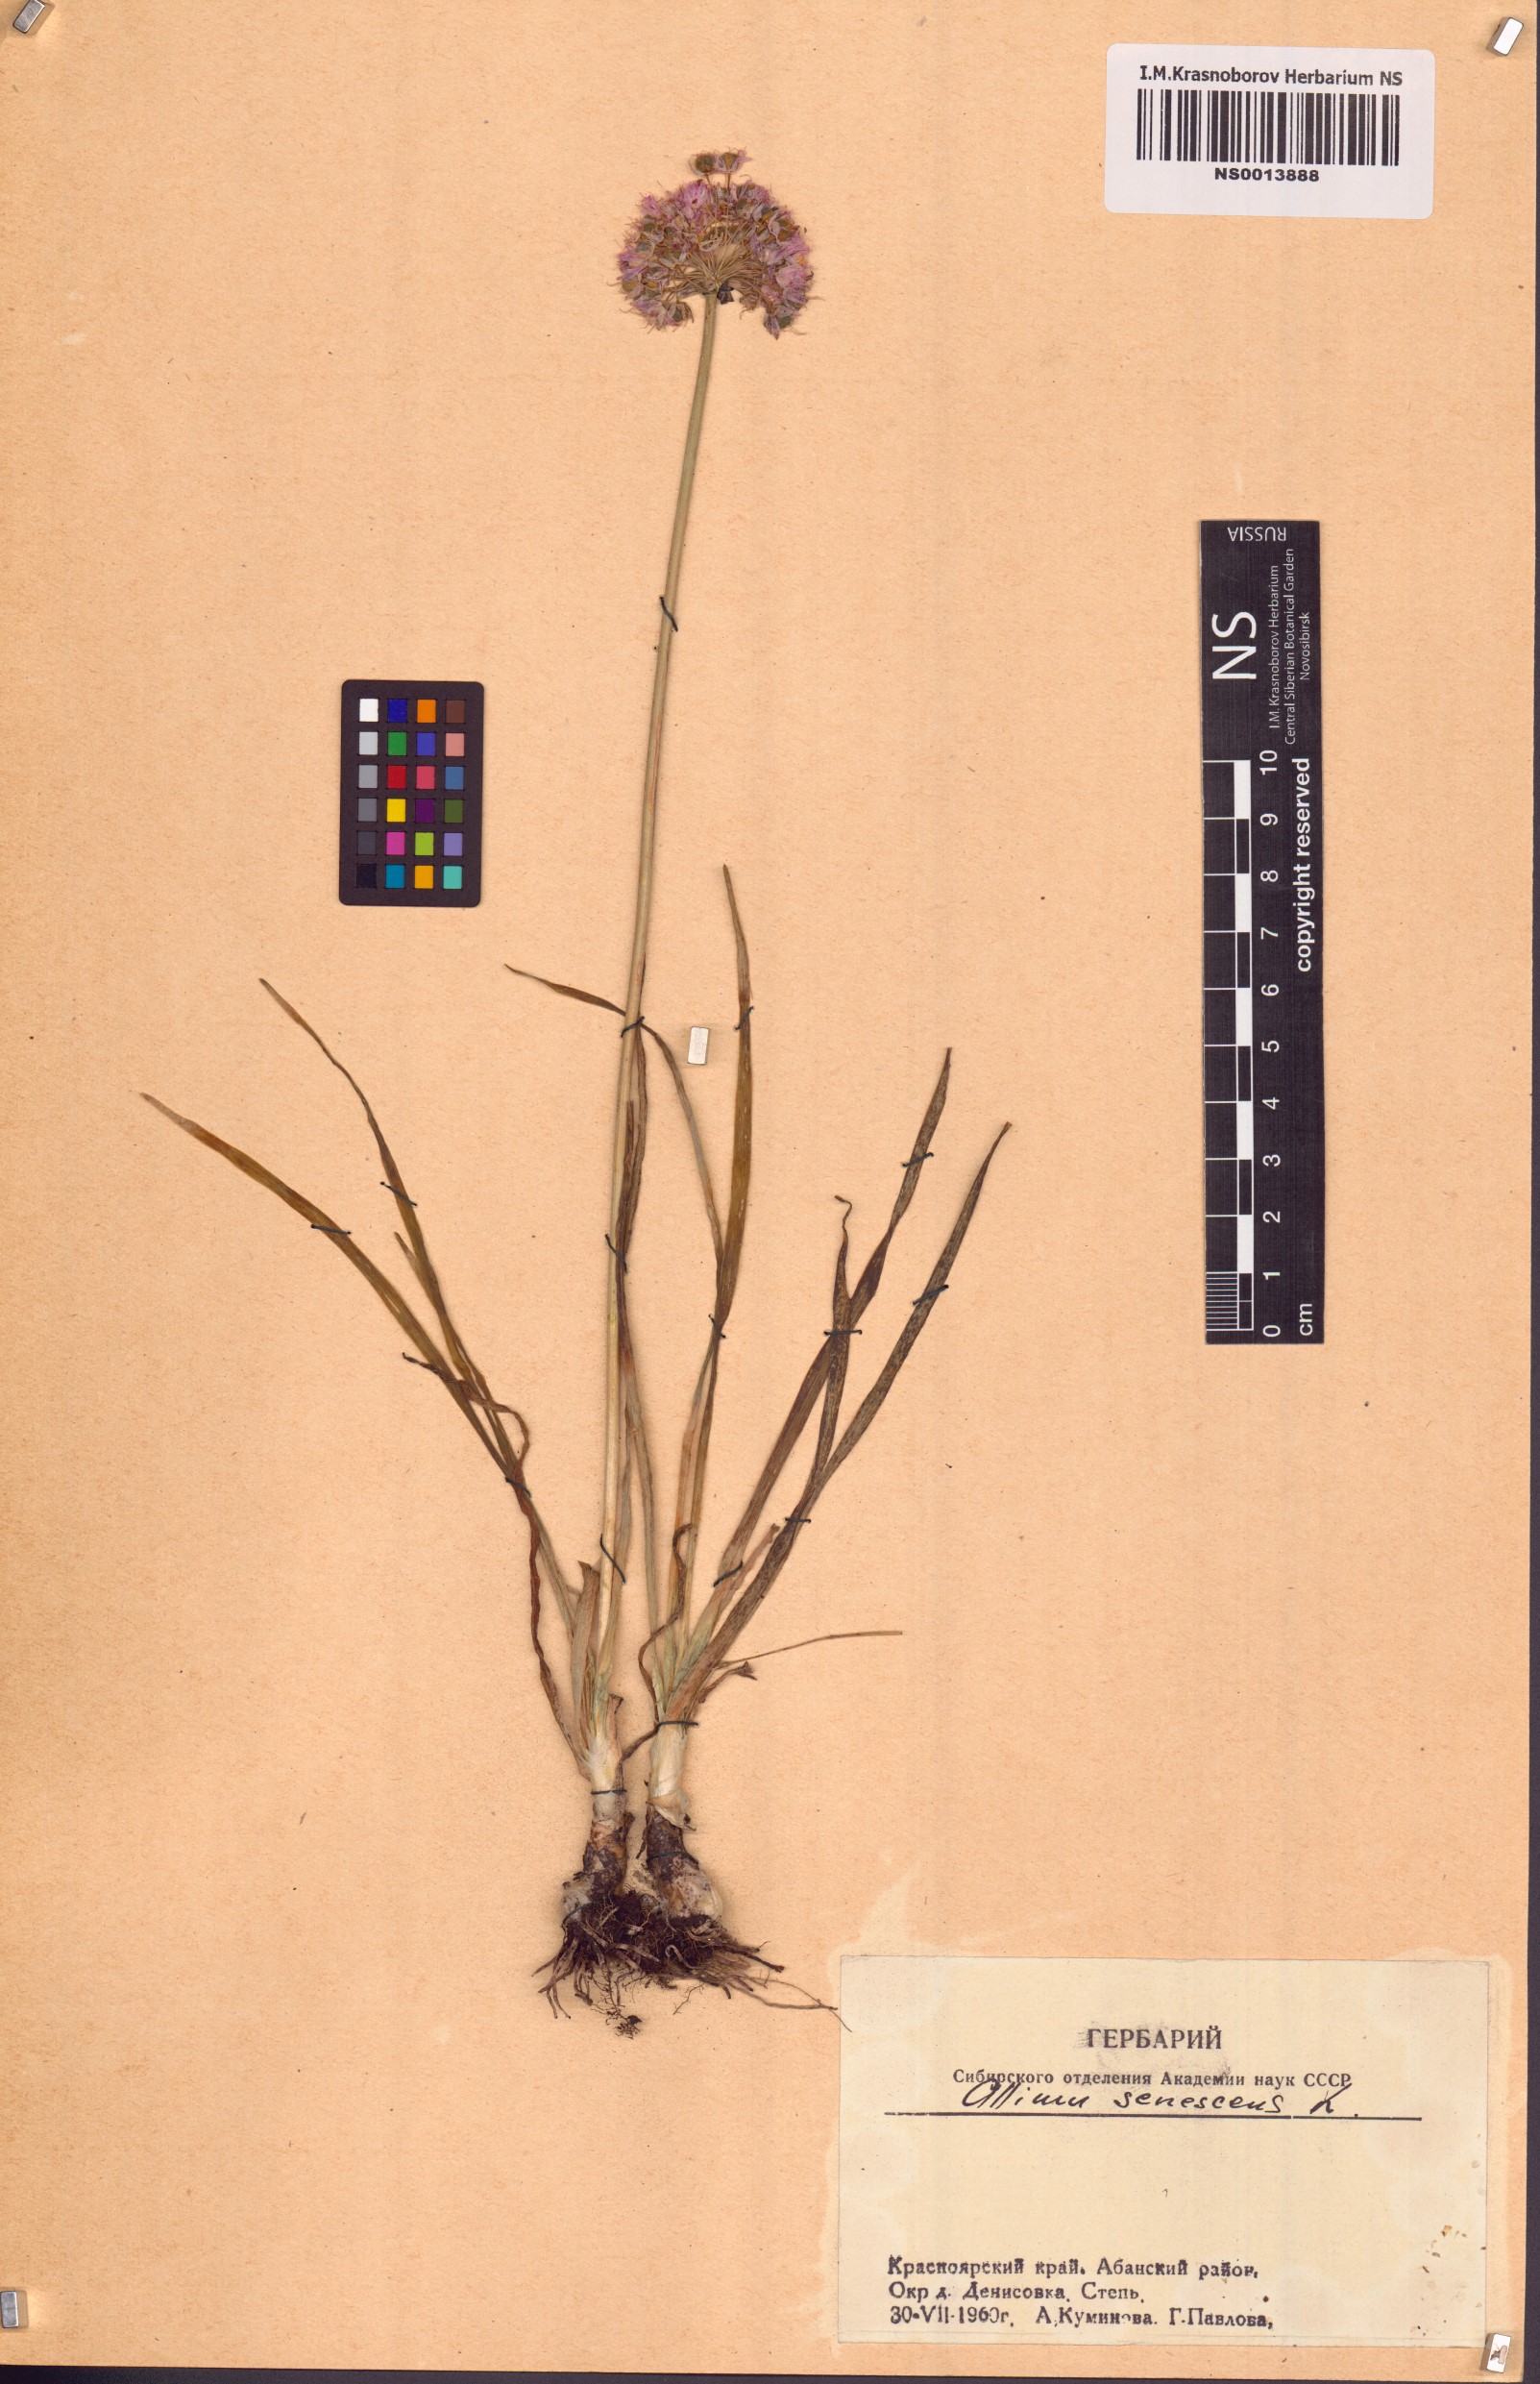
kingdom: Plantae
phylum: Tracheophyta
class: Liliopsida
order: Asparagales
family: Amaryllidaceae
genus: Allium
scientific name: Allium senescens
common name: German garlic
